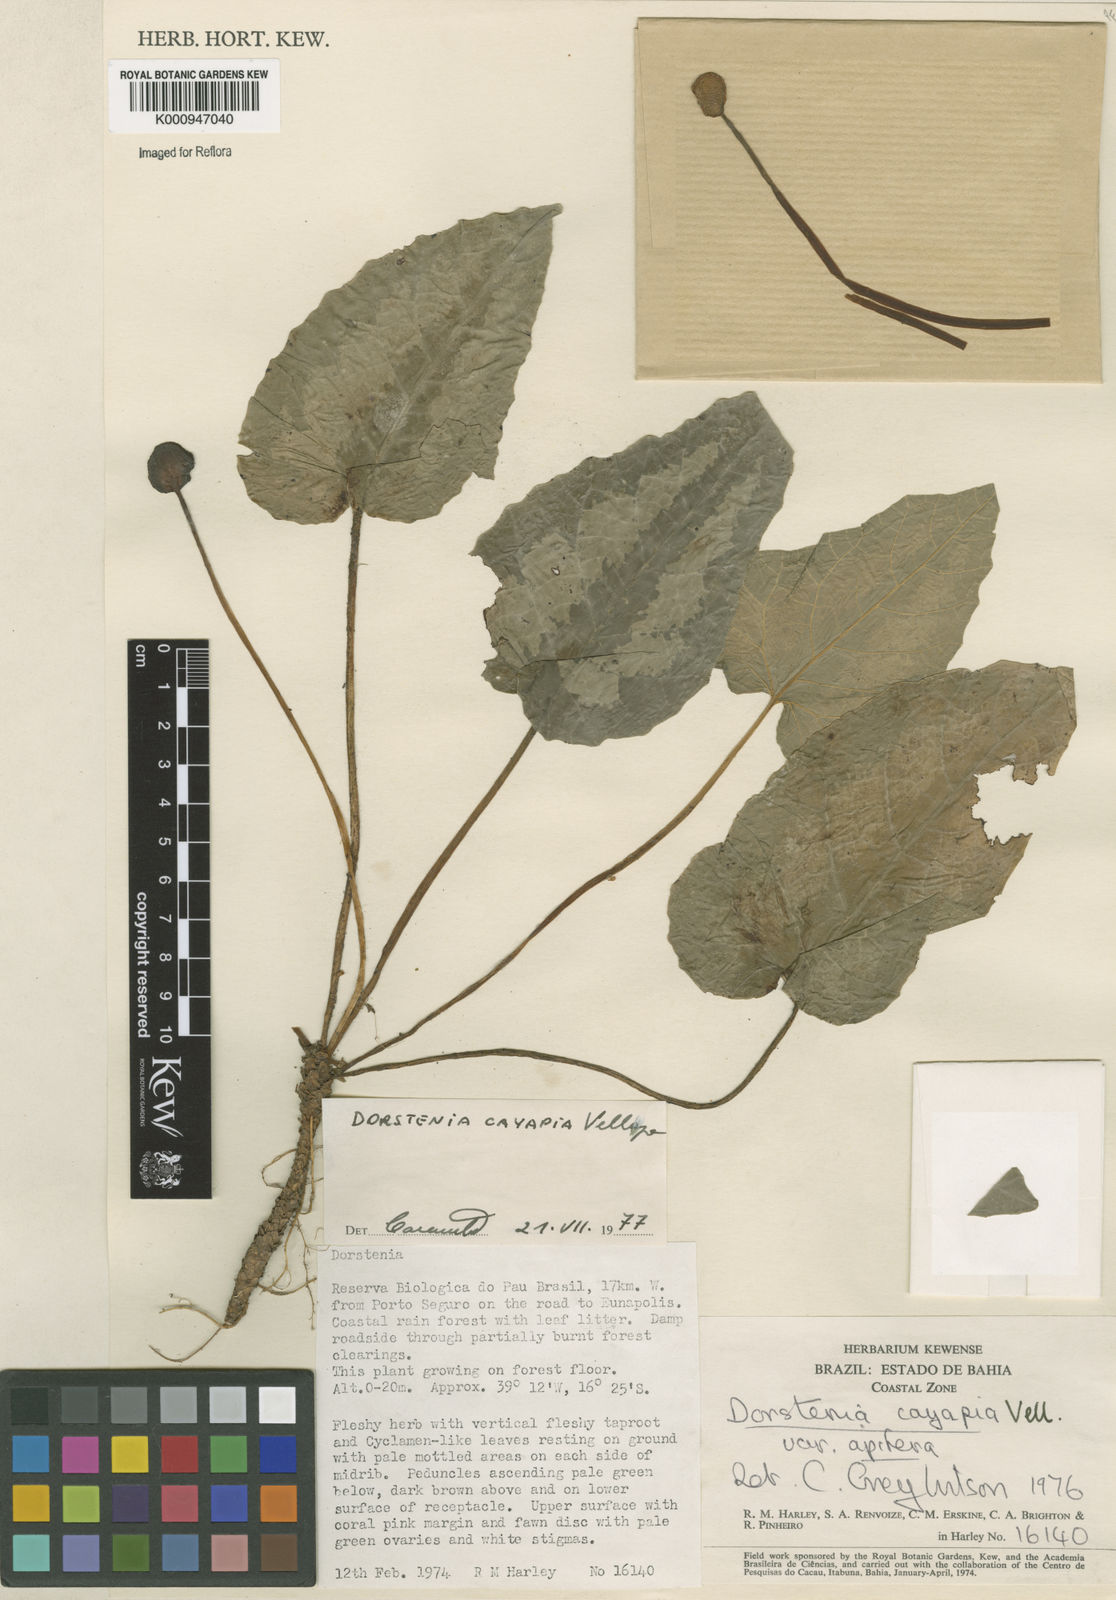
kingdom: Plantae
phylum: Tracheophyta
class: Magnoliopsida
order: Rosales
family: Moraceae
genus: Dorstenia
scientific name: Dorstenia cayapia
